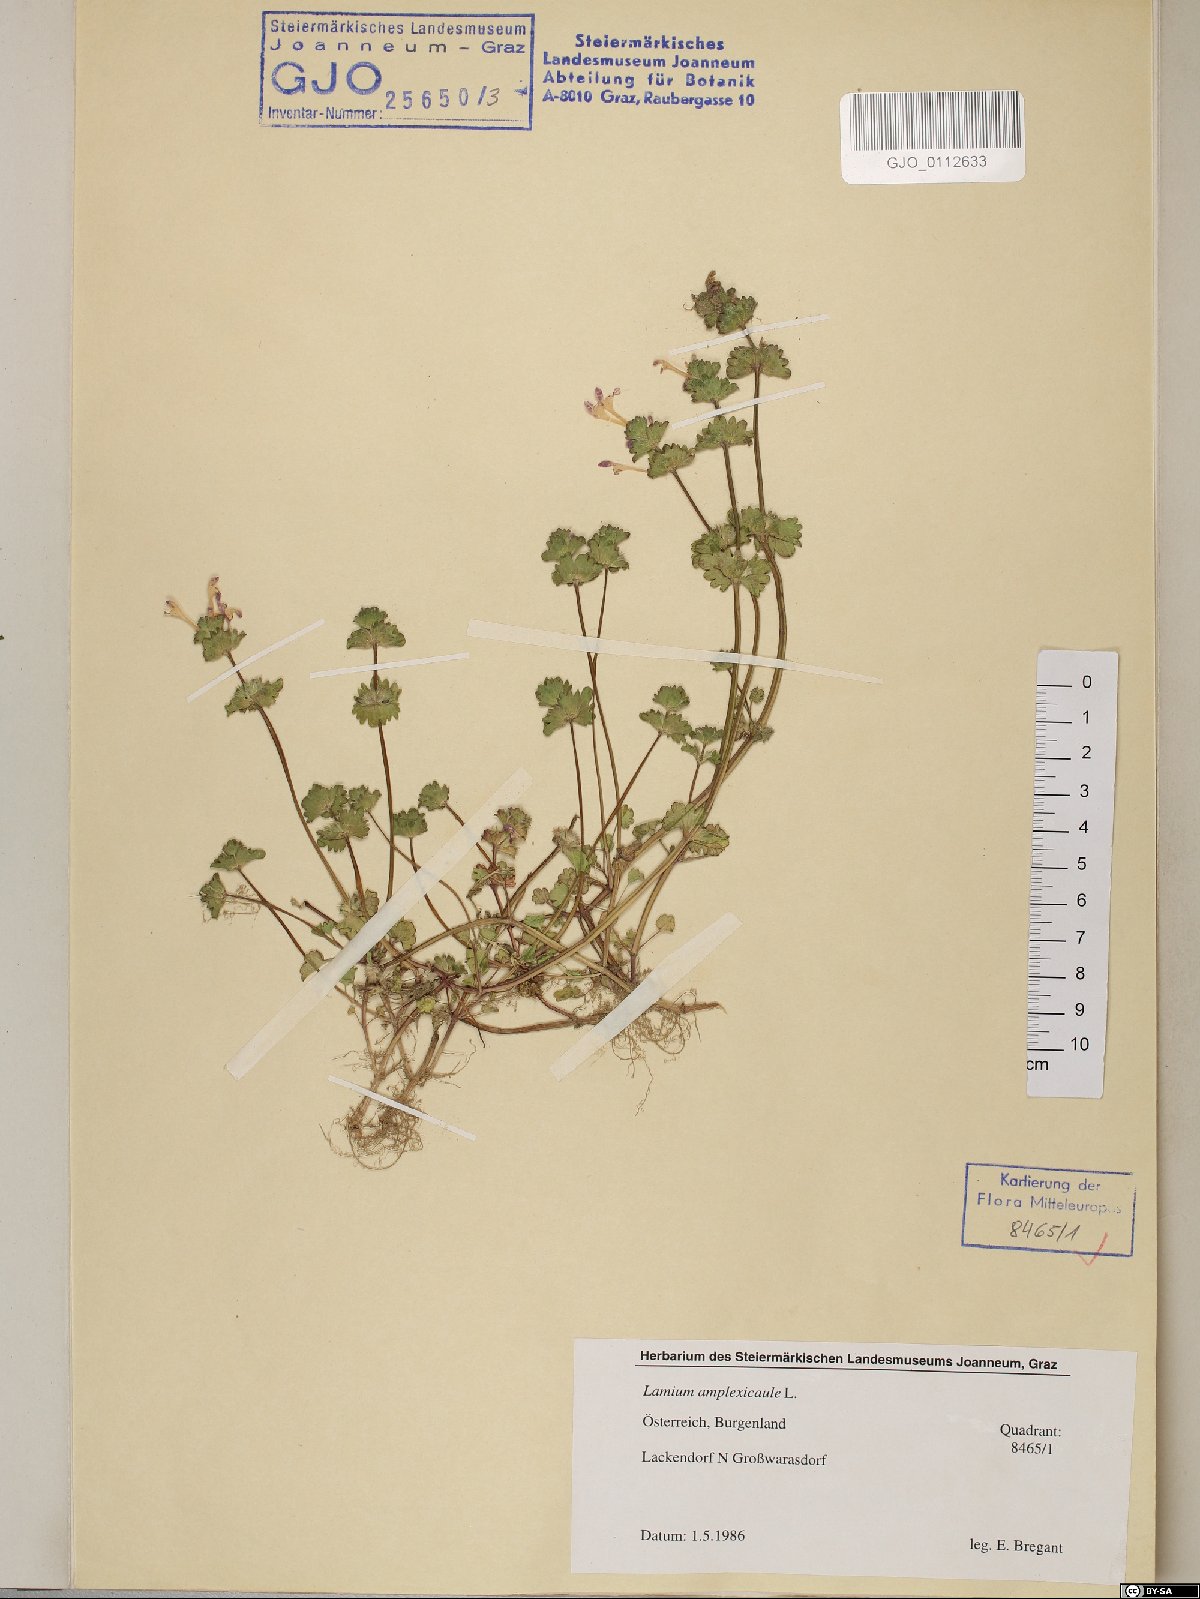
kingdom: Plantae
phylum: Tracheophyta
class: Magnoliopsida
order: Lamiales
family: Lamiaceae
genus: Lamium
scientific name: Lamium amplexicaule
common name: Henbit dead-nettle
